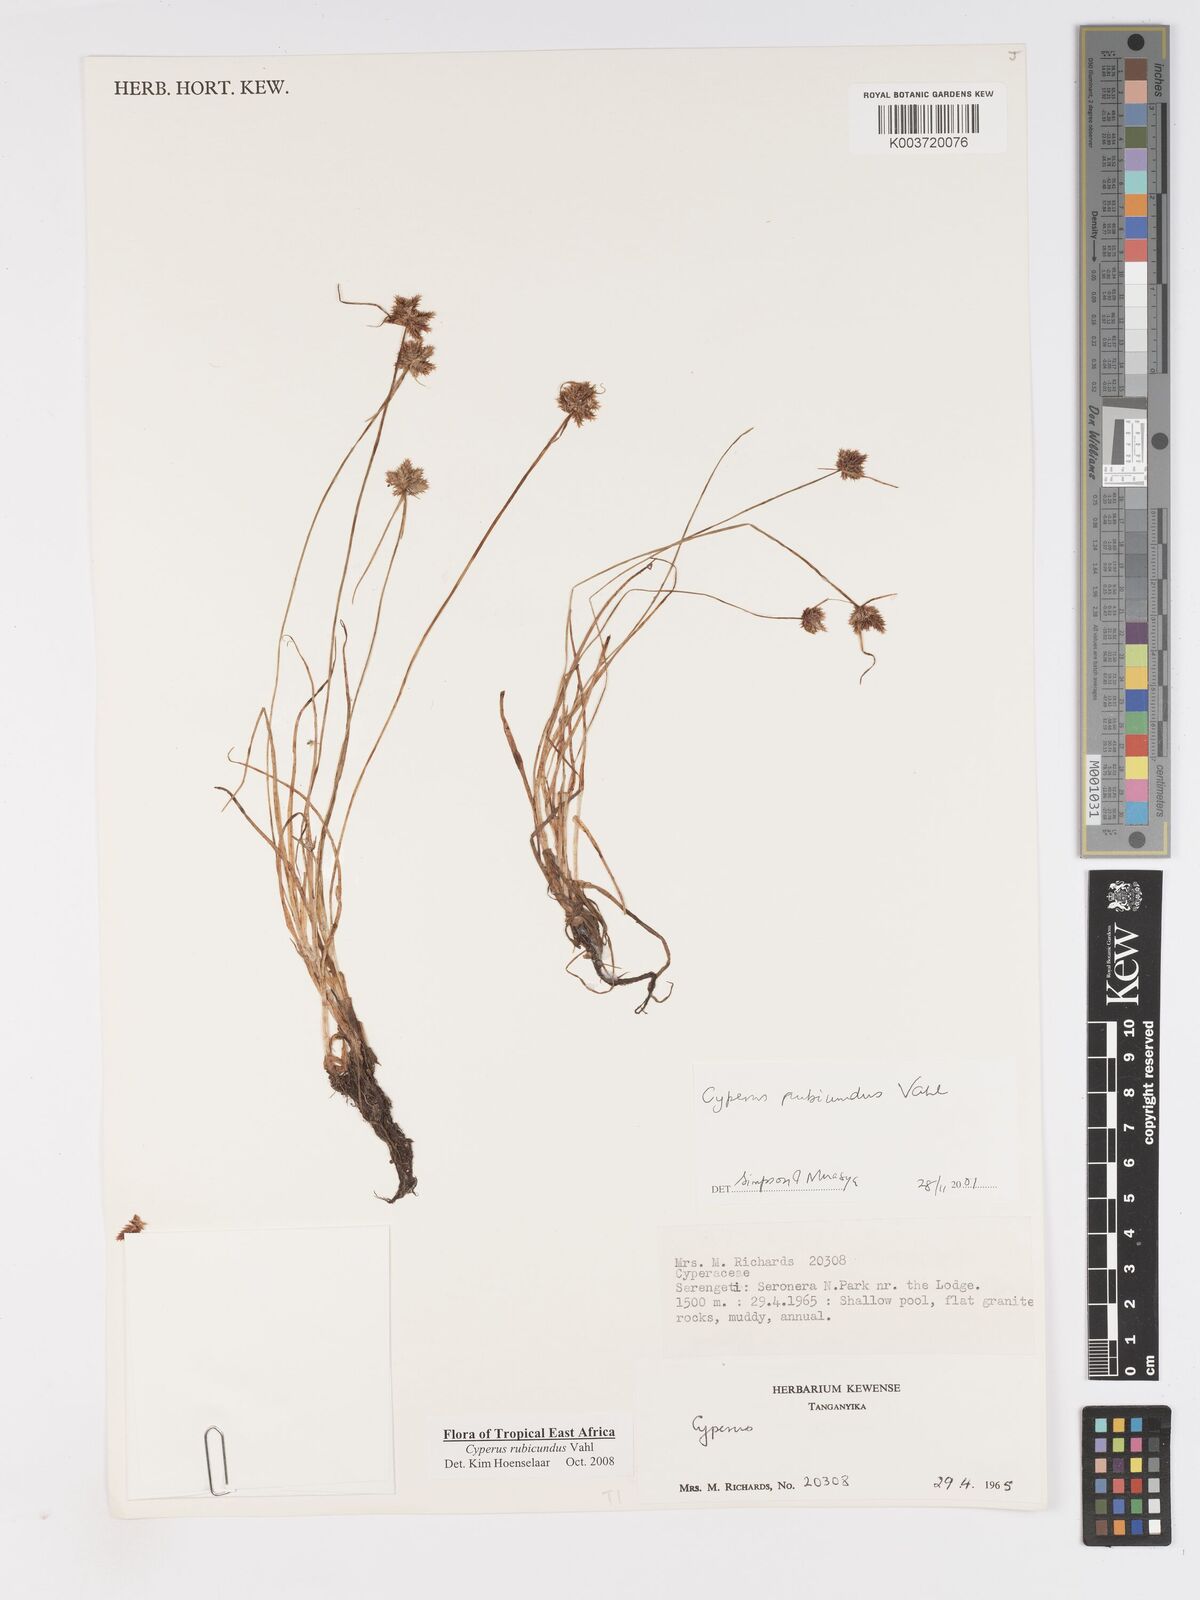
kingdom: Plantae
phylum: Tracheophyta
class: Liliopsida
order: Poales
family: Cyperaceae
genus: Cyperus
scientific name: Cyperus rubicundus
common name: Coco-grass
